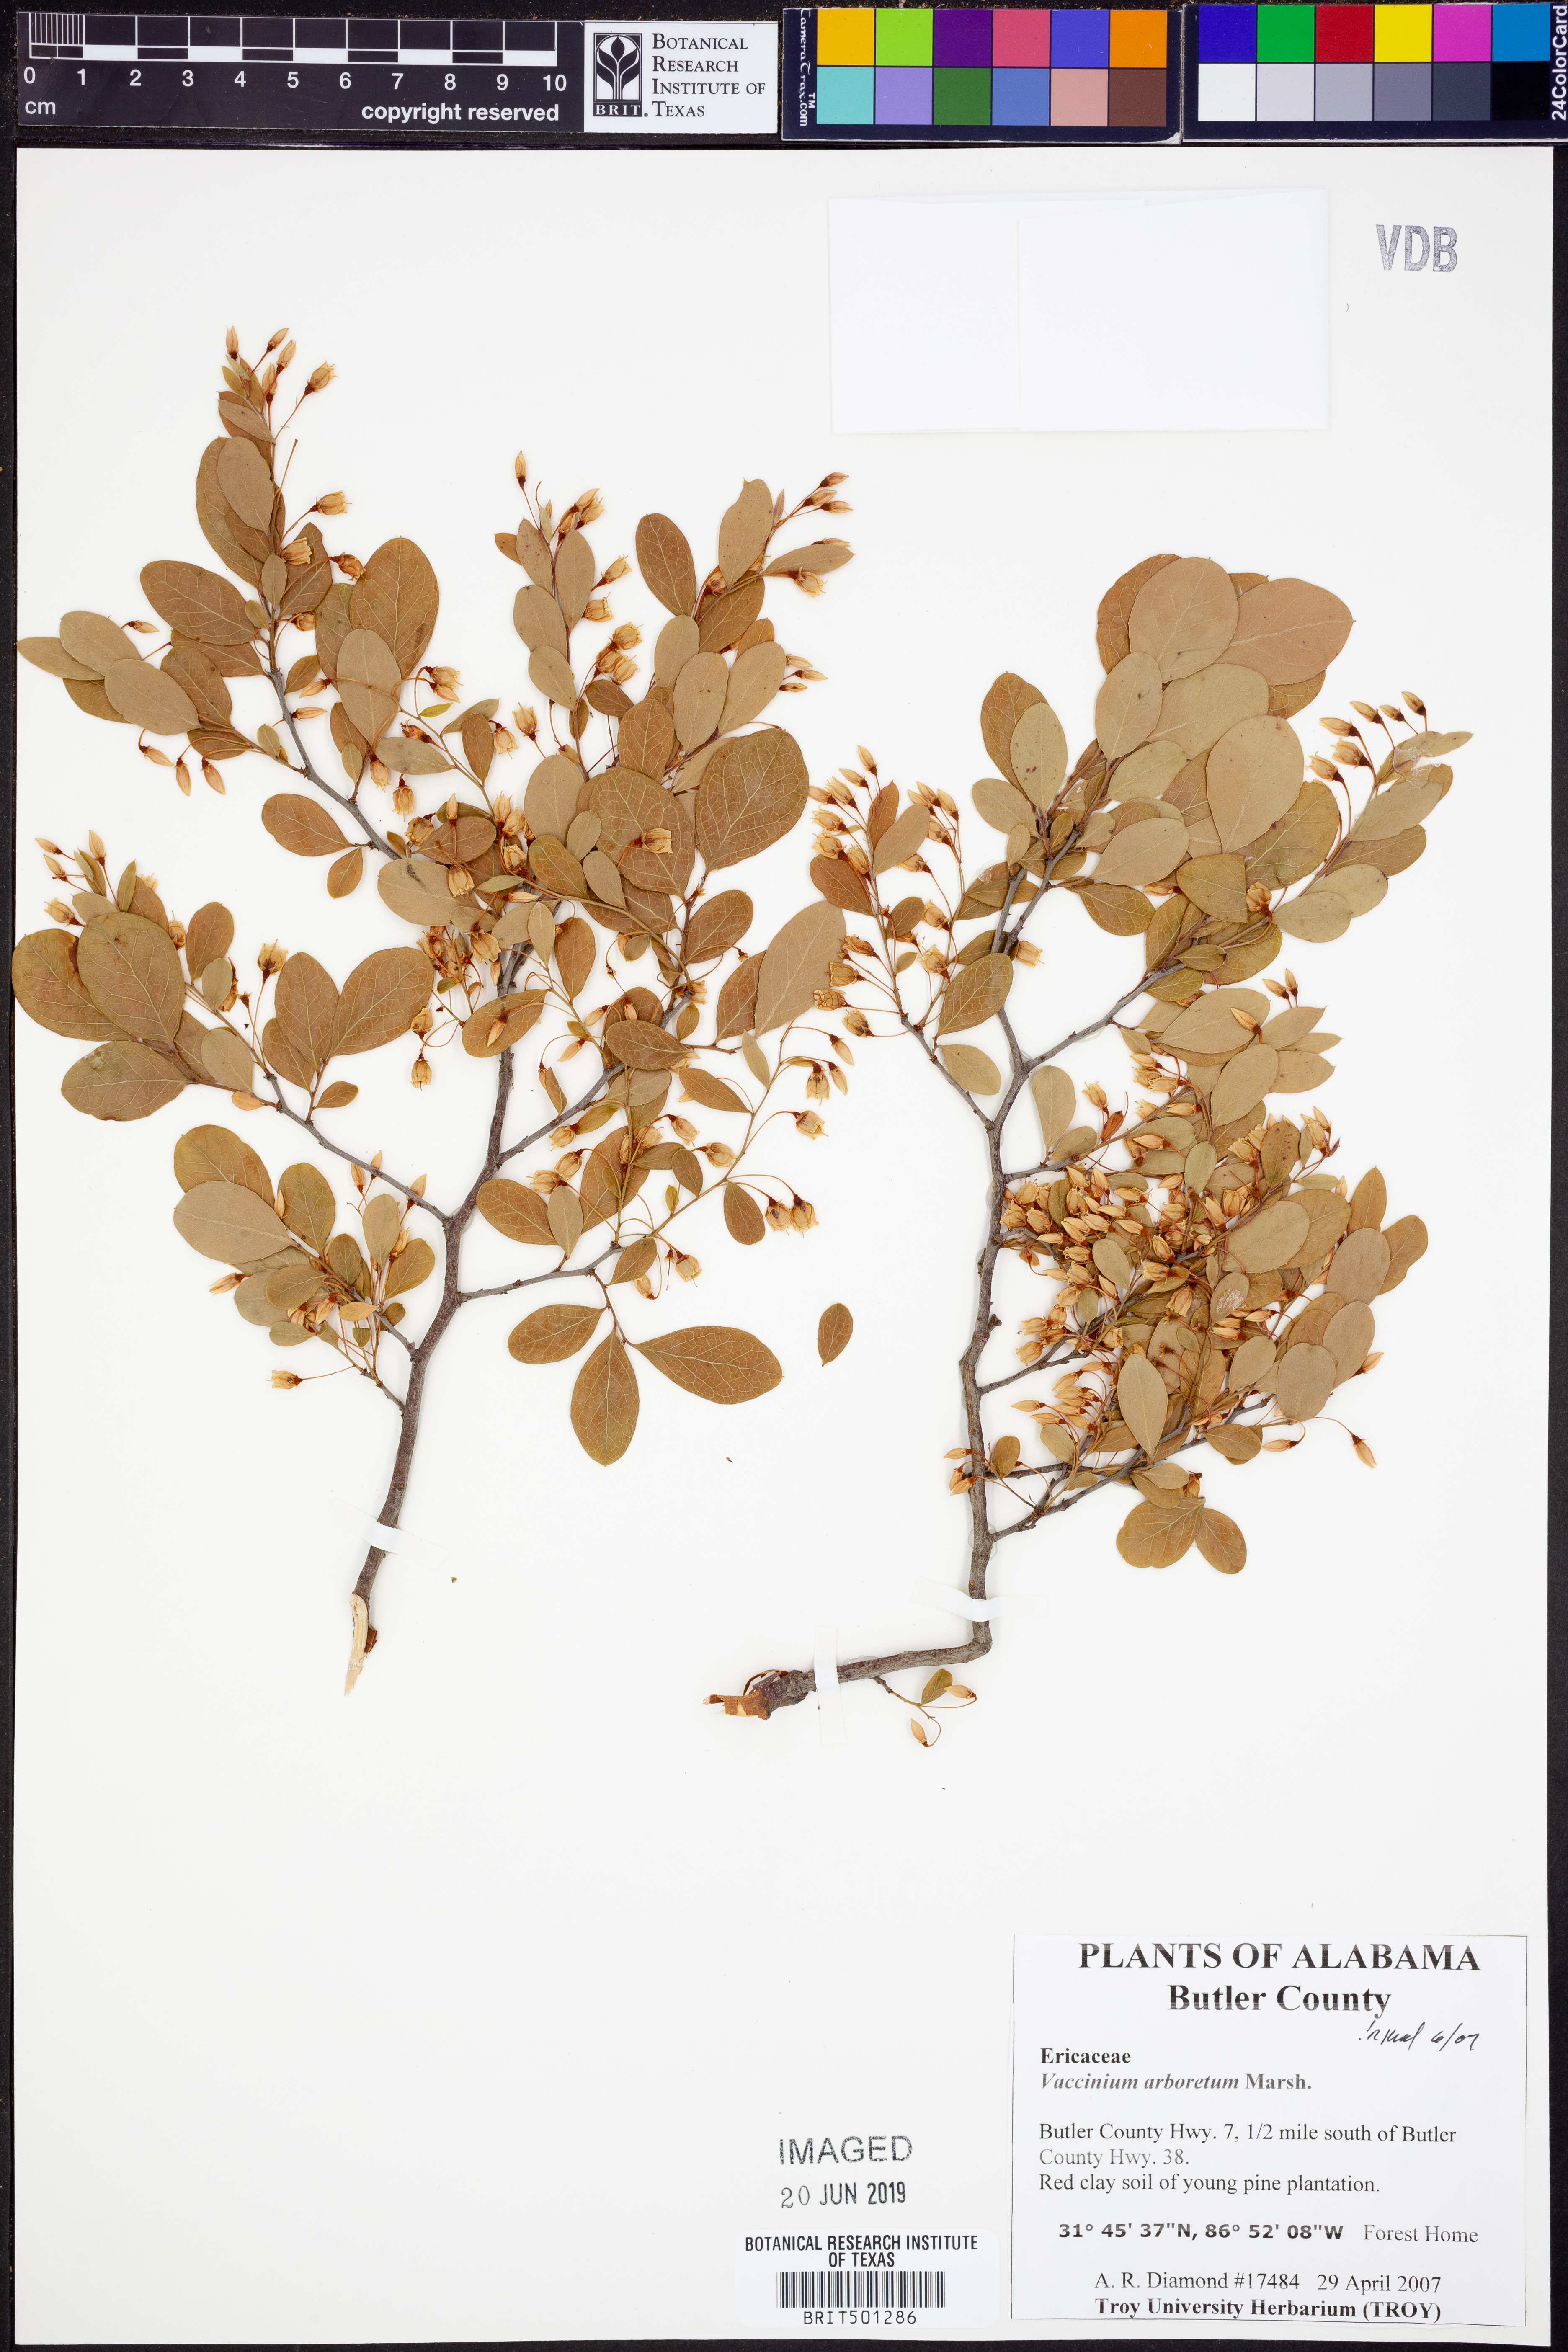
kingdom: Plantae
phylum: Tracheophyta
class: Magnoliopsida
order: Ericales
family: Ericaceae
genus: Vaccinium
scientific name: Vaccinium arboreum
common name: Farkleberry
